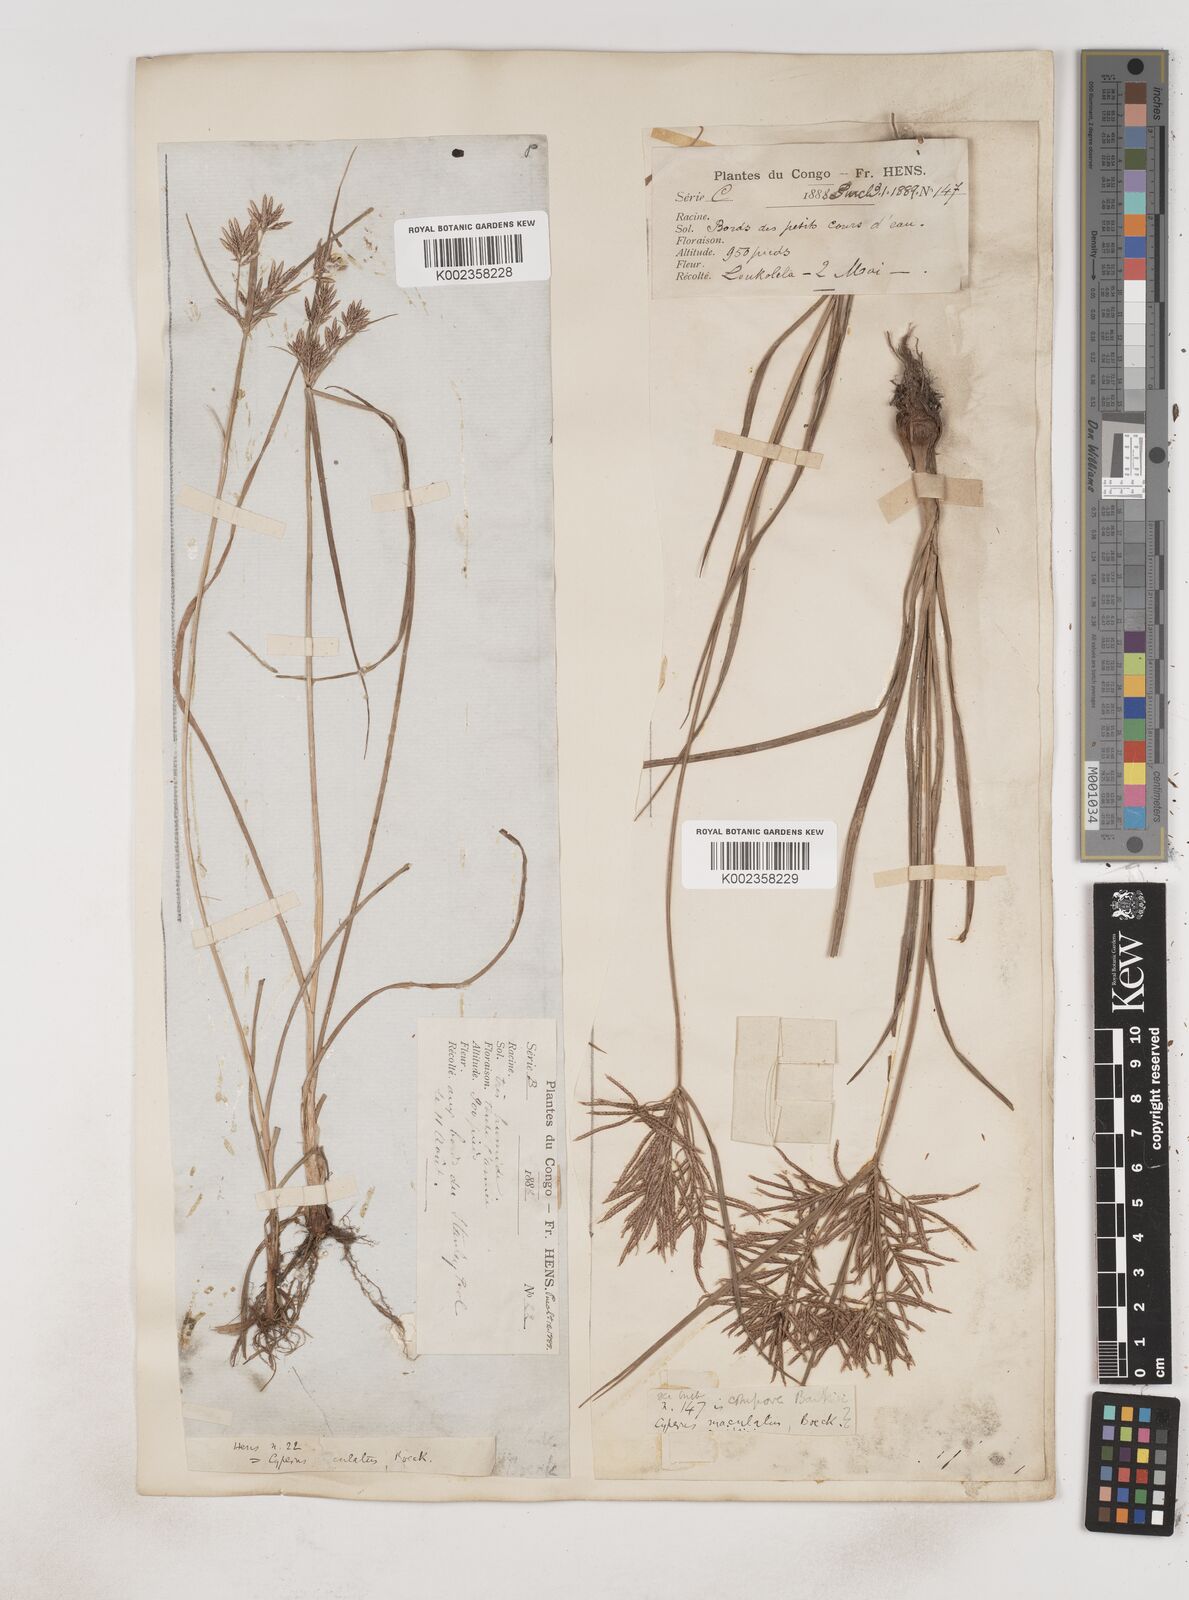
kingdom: Plantae
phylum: Tracheophyta
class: Liliopsida
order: Poales
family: Cyperaceae
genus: Cyperus
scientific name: Cyperus maculatus
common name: Maculated sedge
